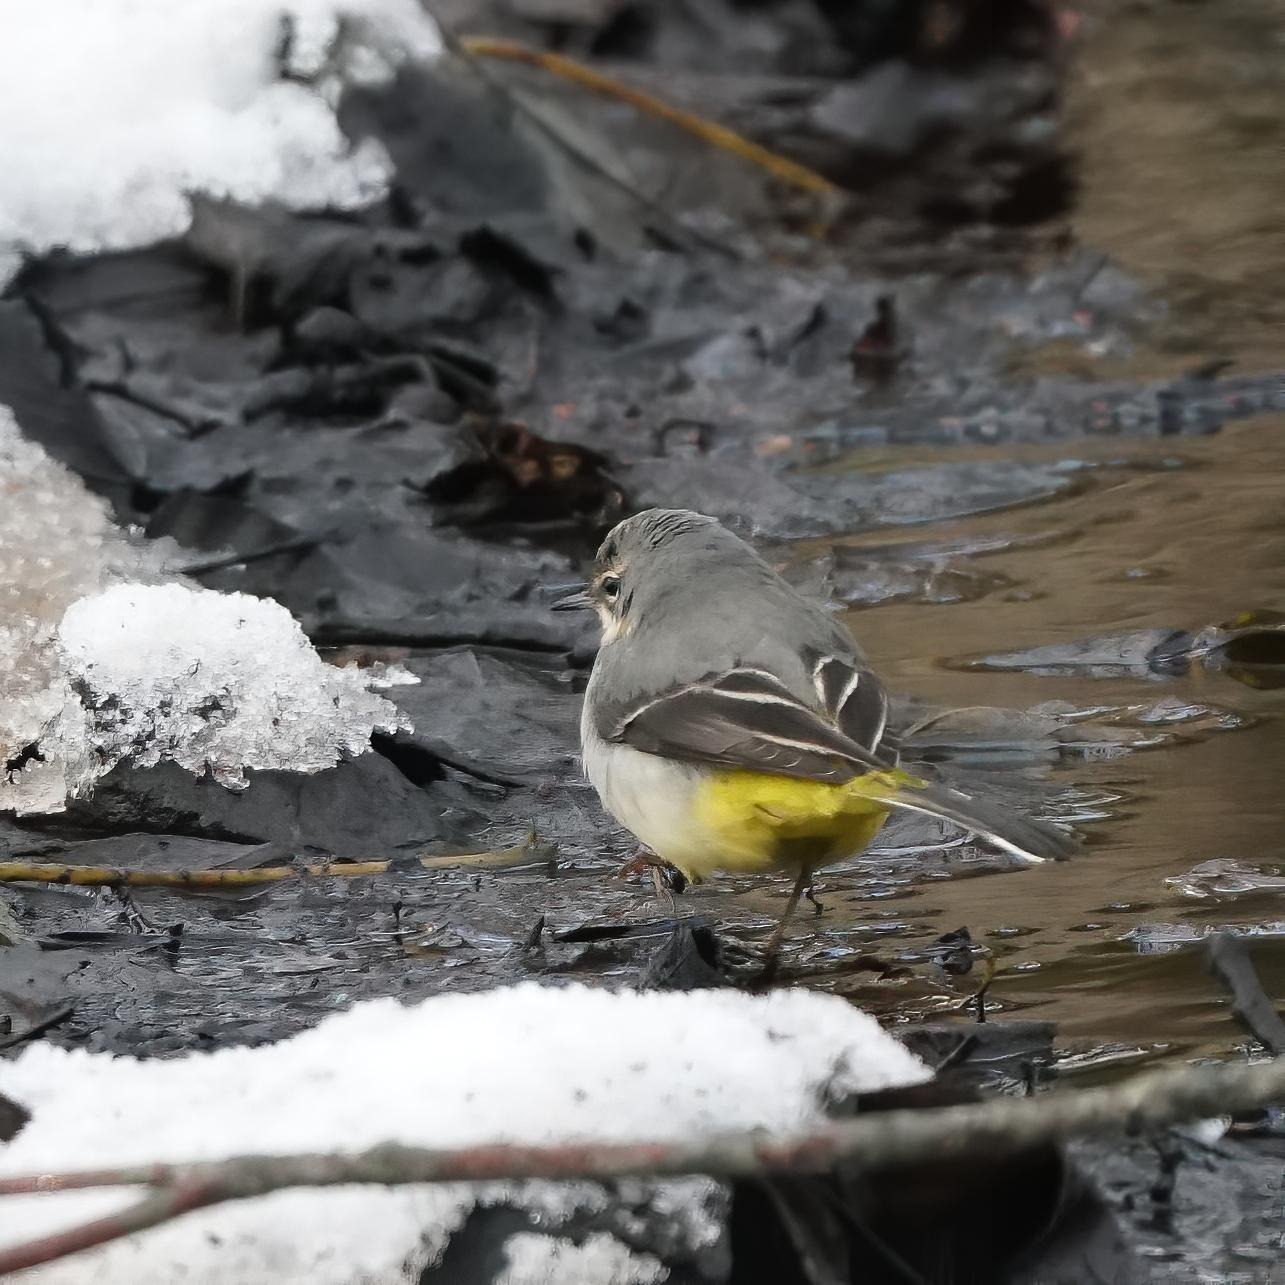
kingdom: Animalia
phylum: Chordata
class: Aves
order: Passeriformes
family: Motacillidae
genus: Motacilla
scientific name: Motacilla cinerea
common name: Bjergvipstjert
